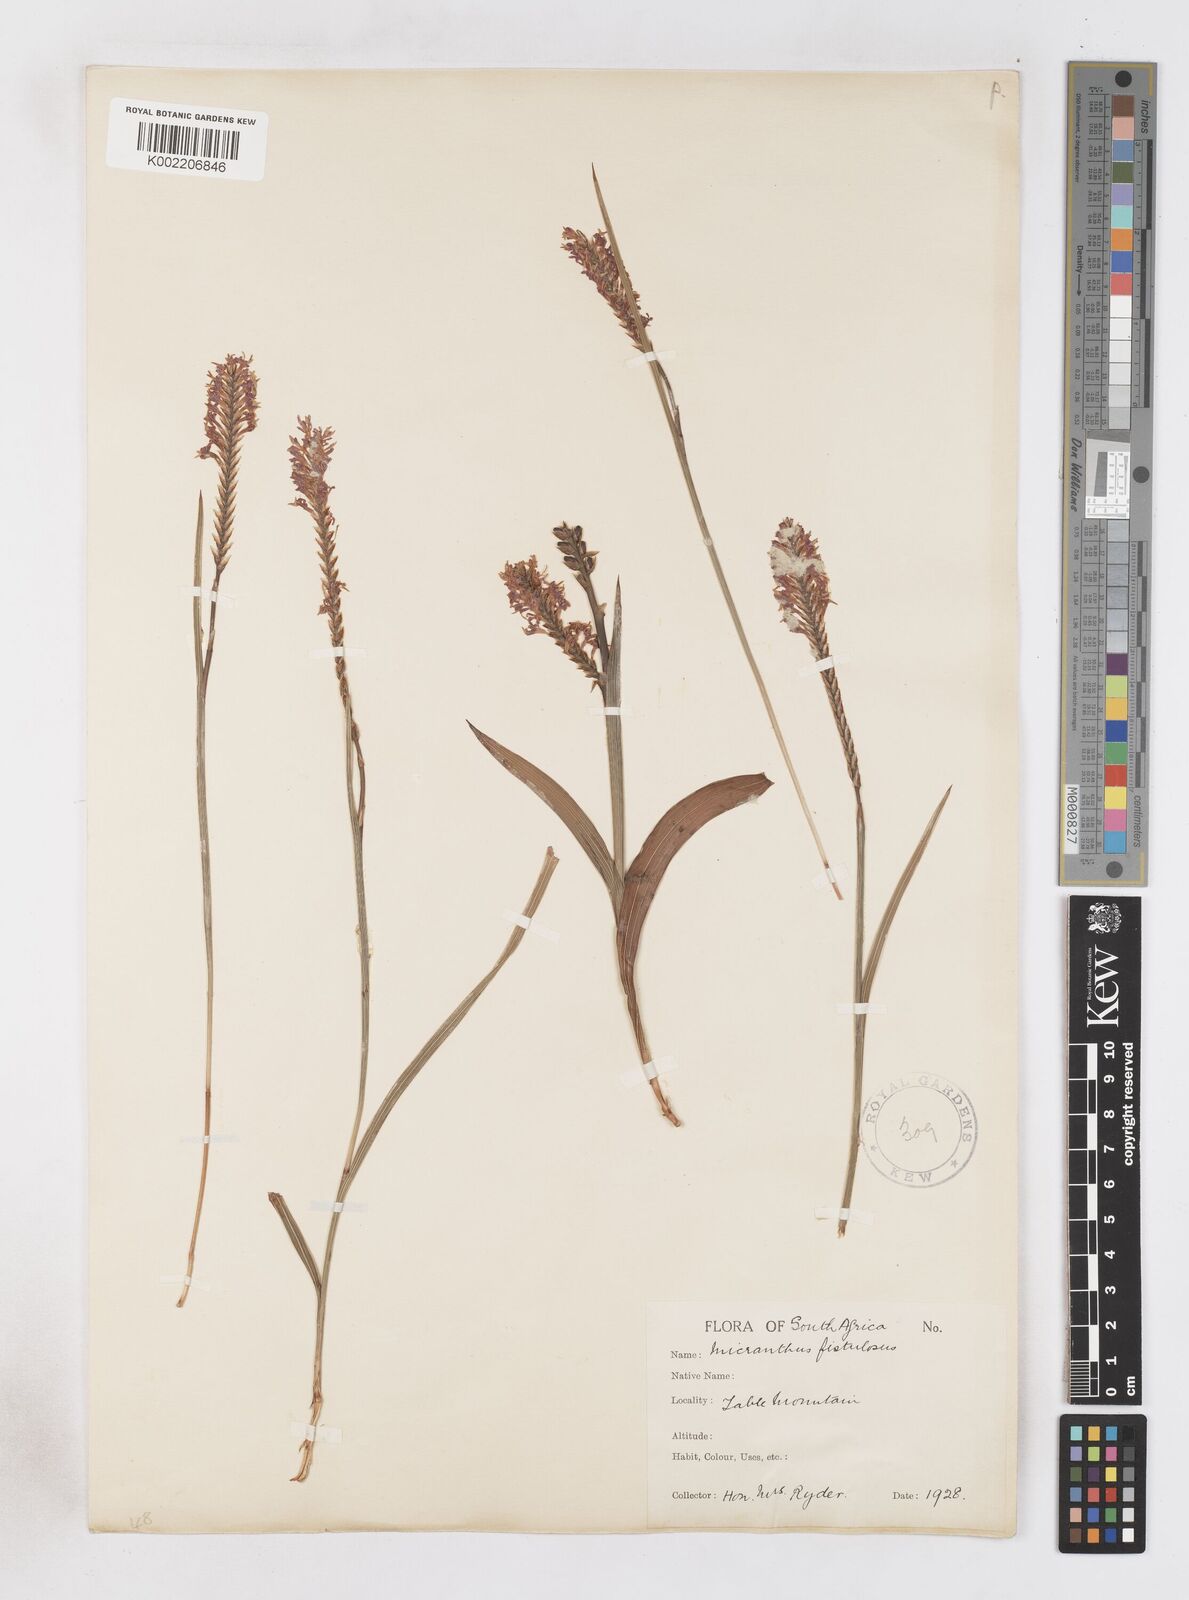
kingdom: Plantae
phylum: Tracheophyta
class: Liliopsida
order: Asparagales
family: Iridaceae
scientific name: Iridaceae
